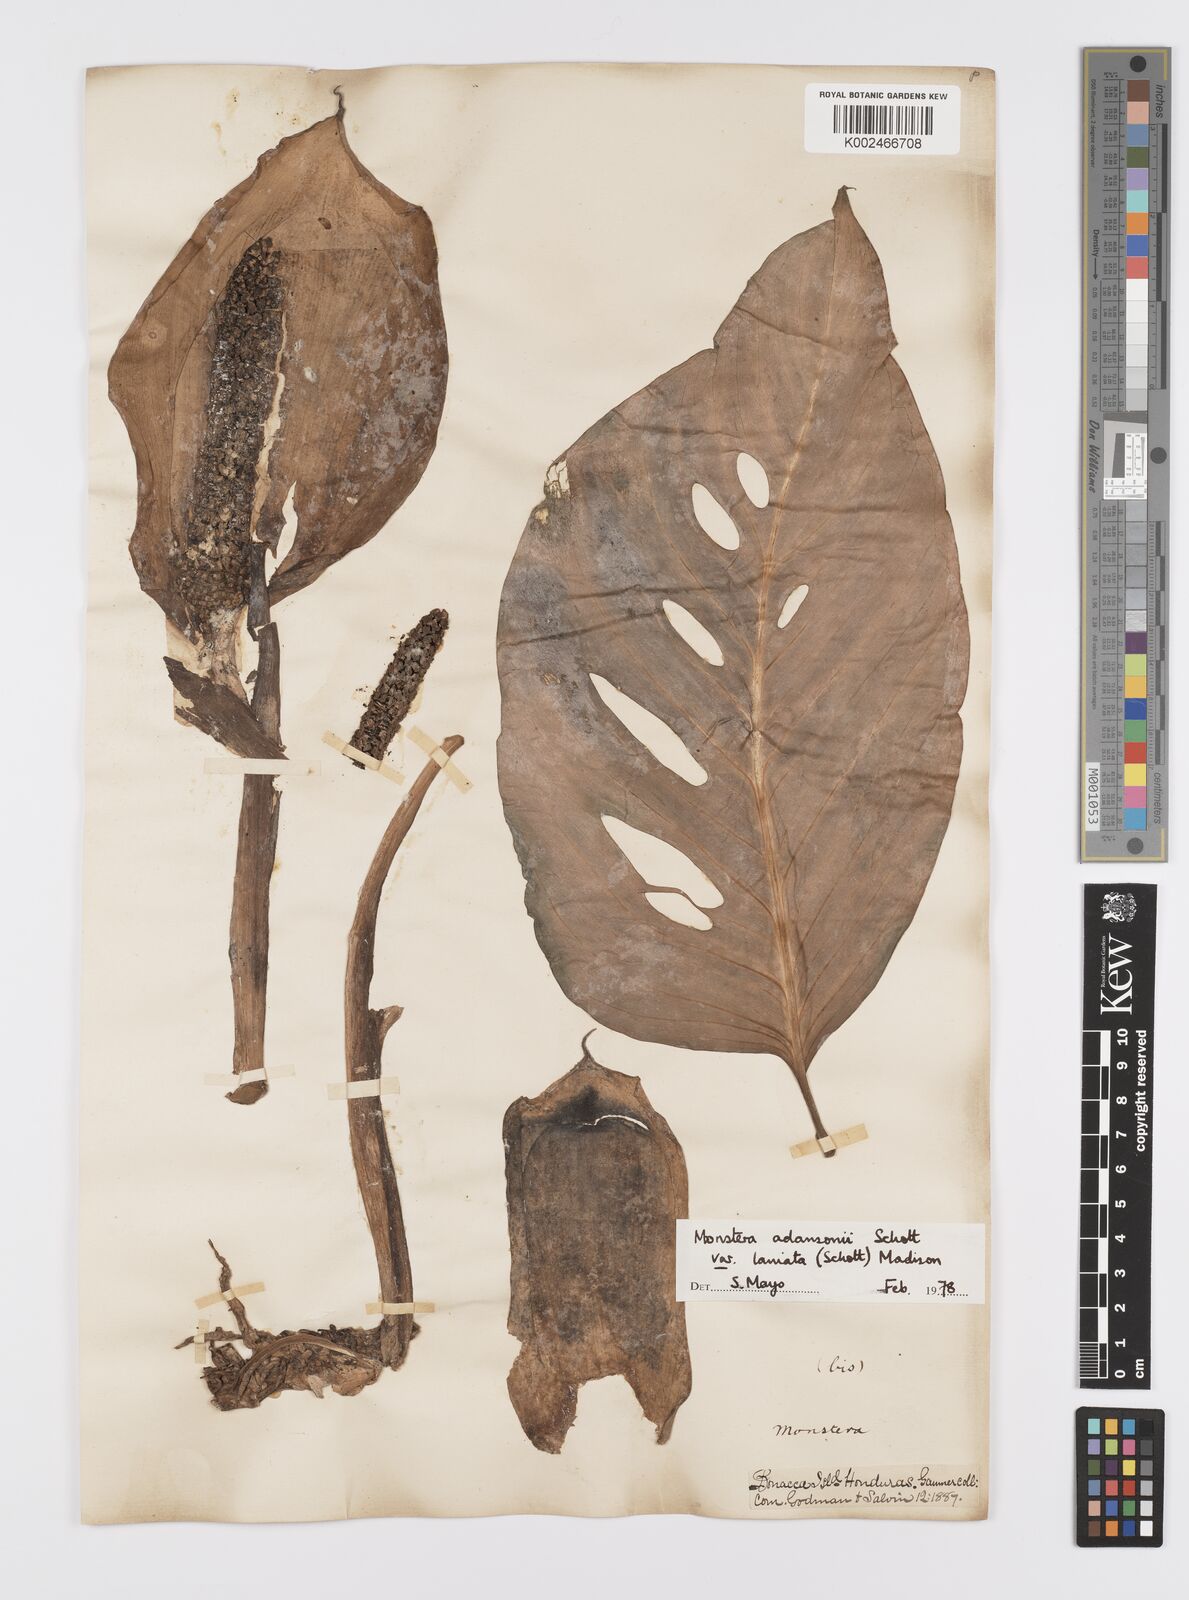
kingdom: Plantae
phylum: Tracheophyta
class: Liliopsida
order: Alismatales
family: Araceae
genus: Monstera
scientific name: Monstera adansonii
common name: Tarovine
